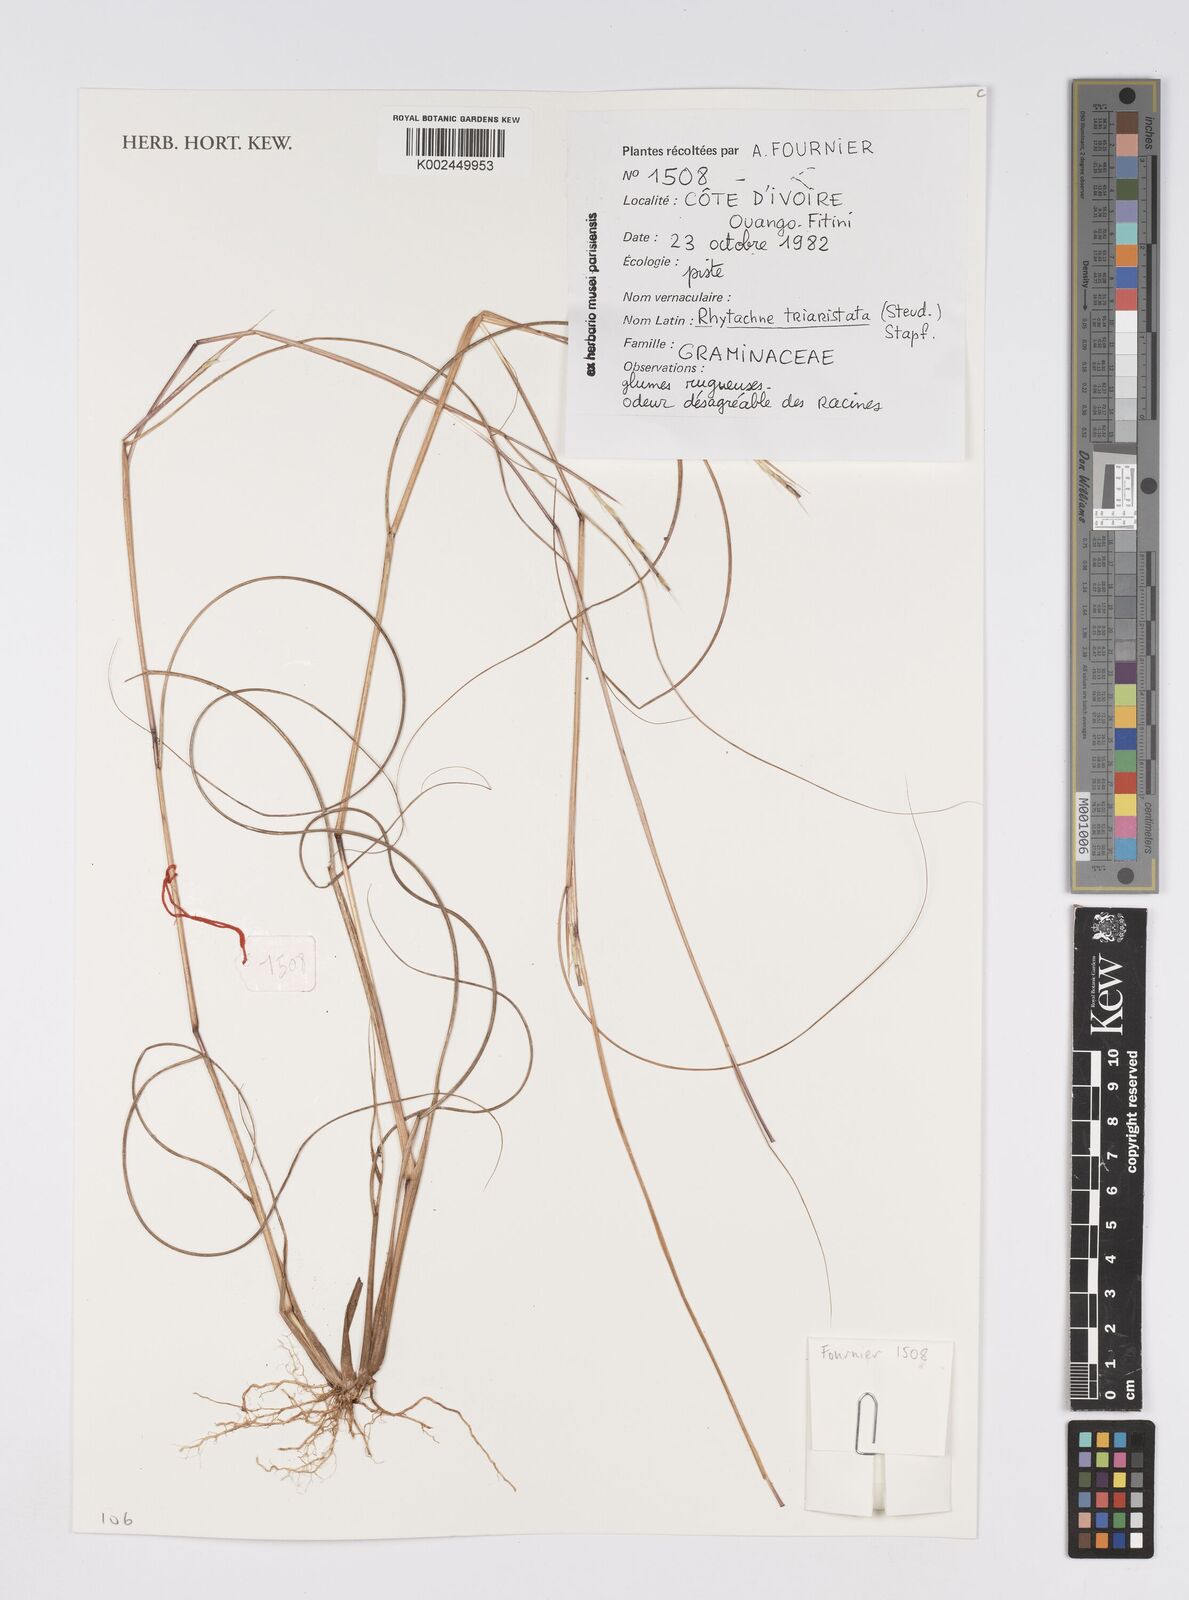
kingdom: Plantae
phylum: Tracheophyta
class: Liliopsida
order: Poales
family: Poaceae
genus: Rhytachne
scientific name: Rhytachne triaristata
